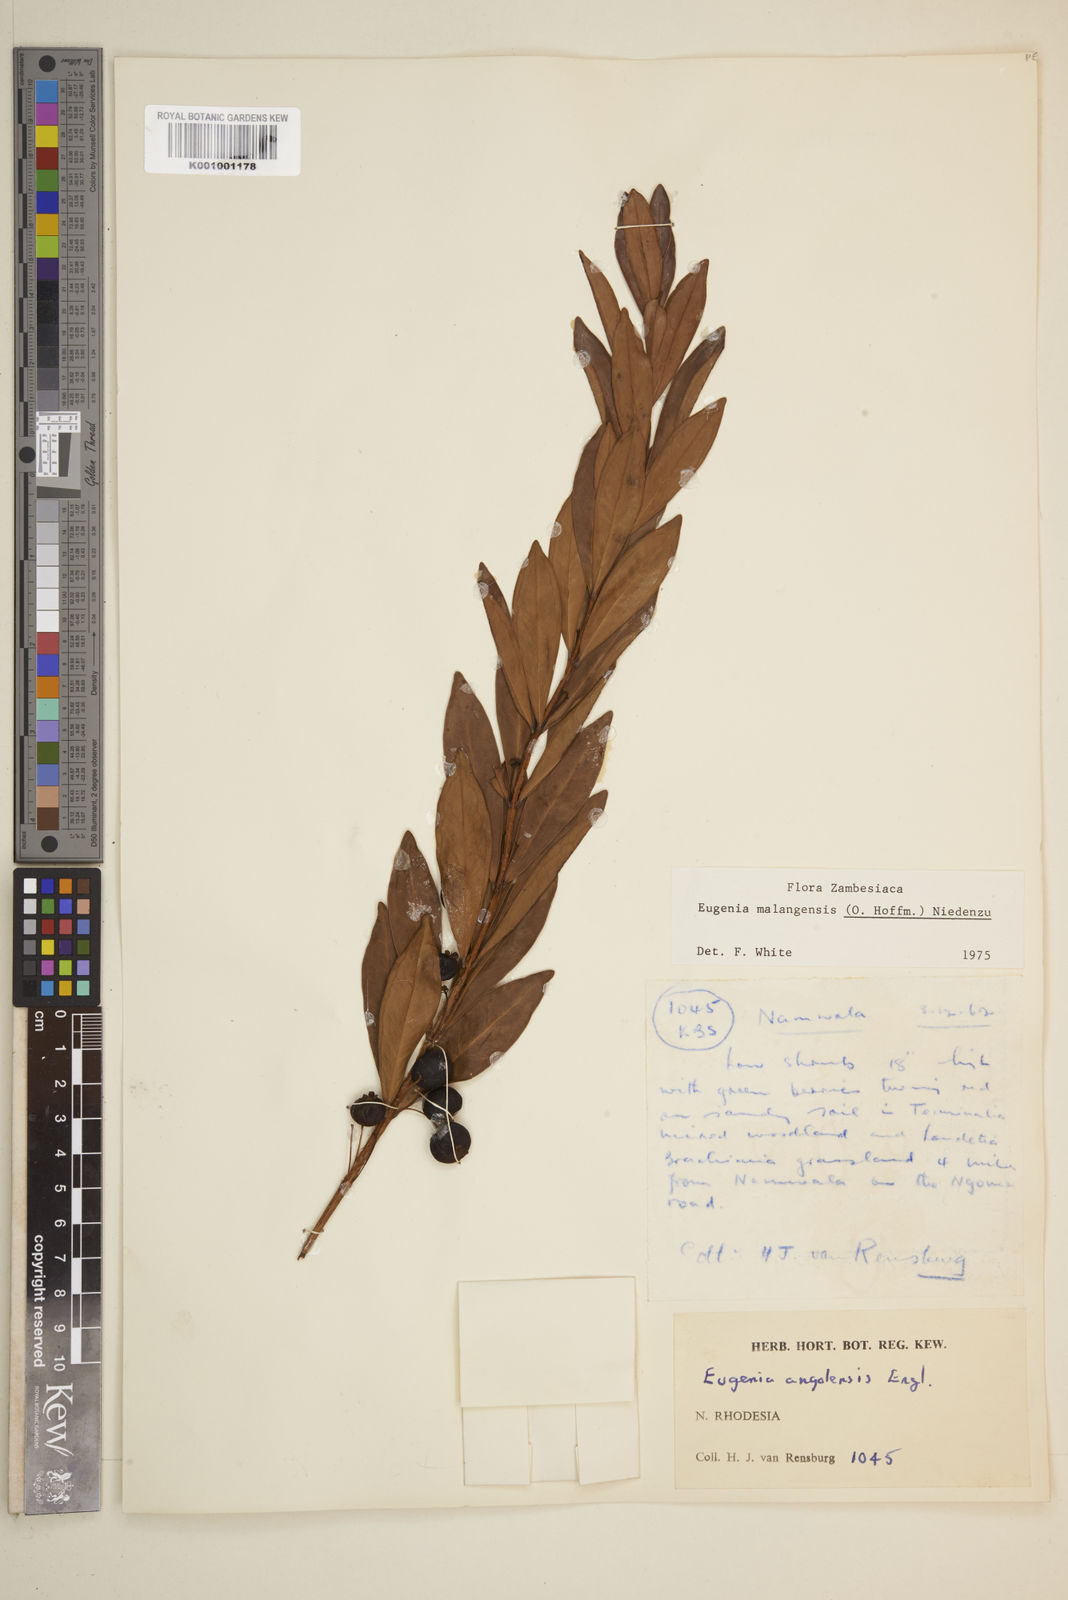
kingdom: Plantae
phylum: Tracheophyta
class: Magnoliopsida
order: Myrtales
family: Myrtaceae
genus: Eugenia
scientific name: Eugenia malangensis
